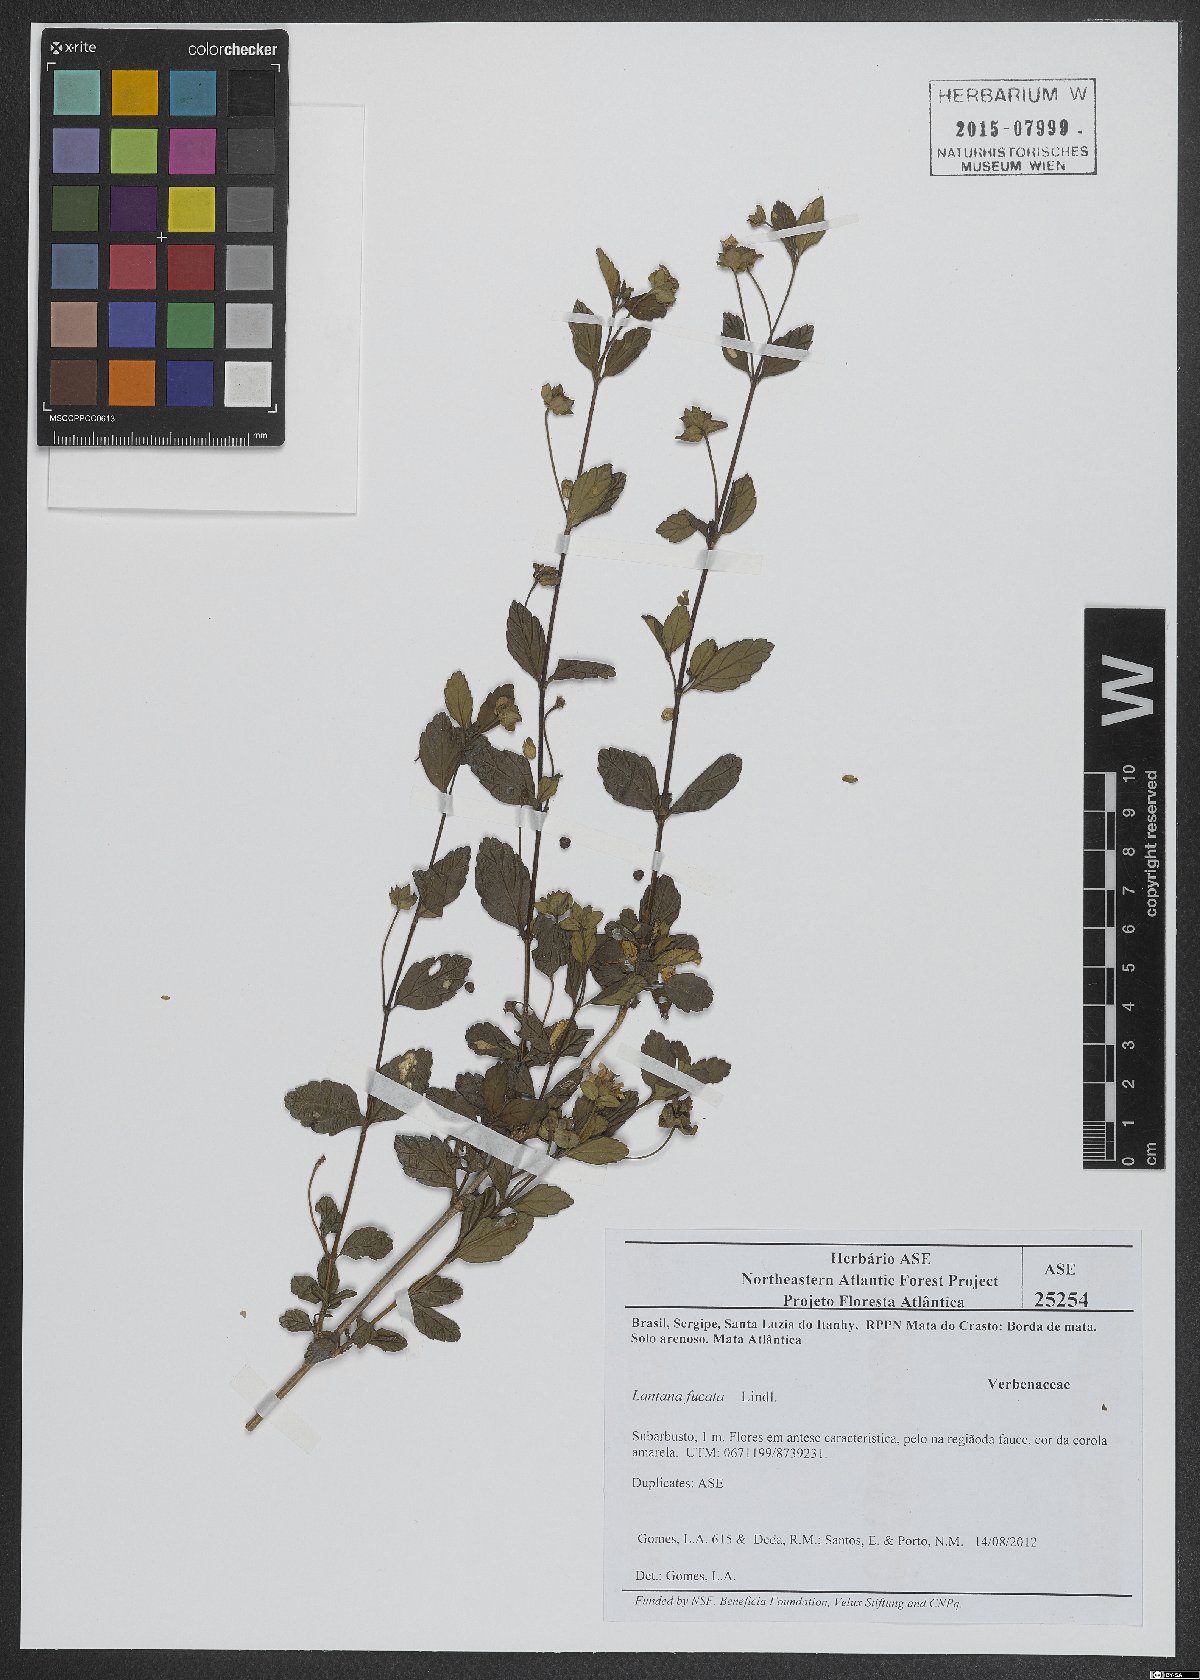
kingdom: Plantae
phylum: Tracheophyta
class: Magnoliopsida
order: Lamiales
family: Verbenaceae
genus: Lantana
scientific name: Lantana fucata
